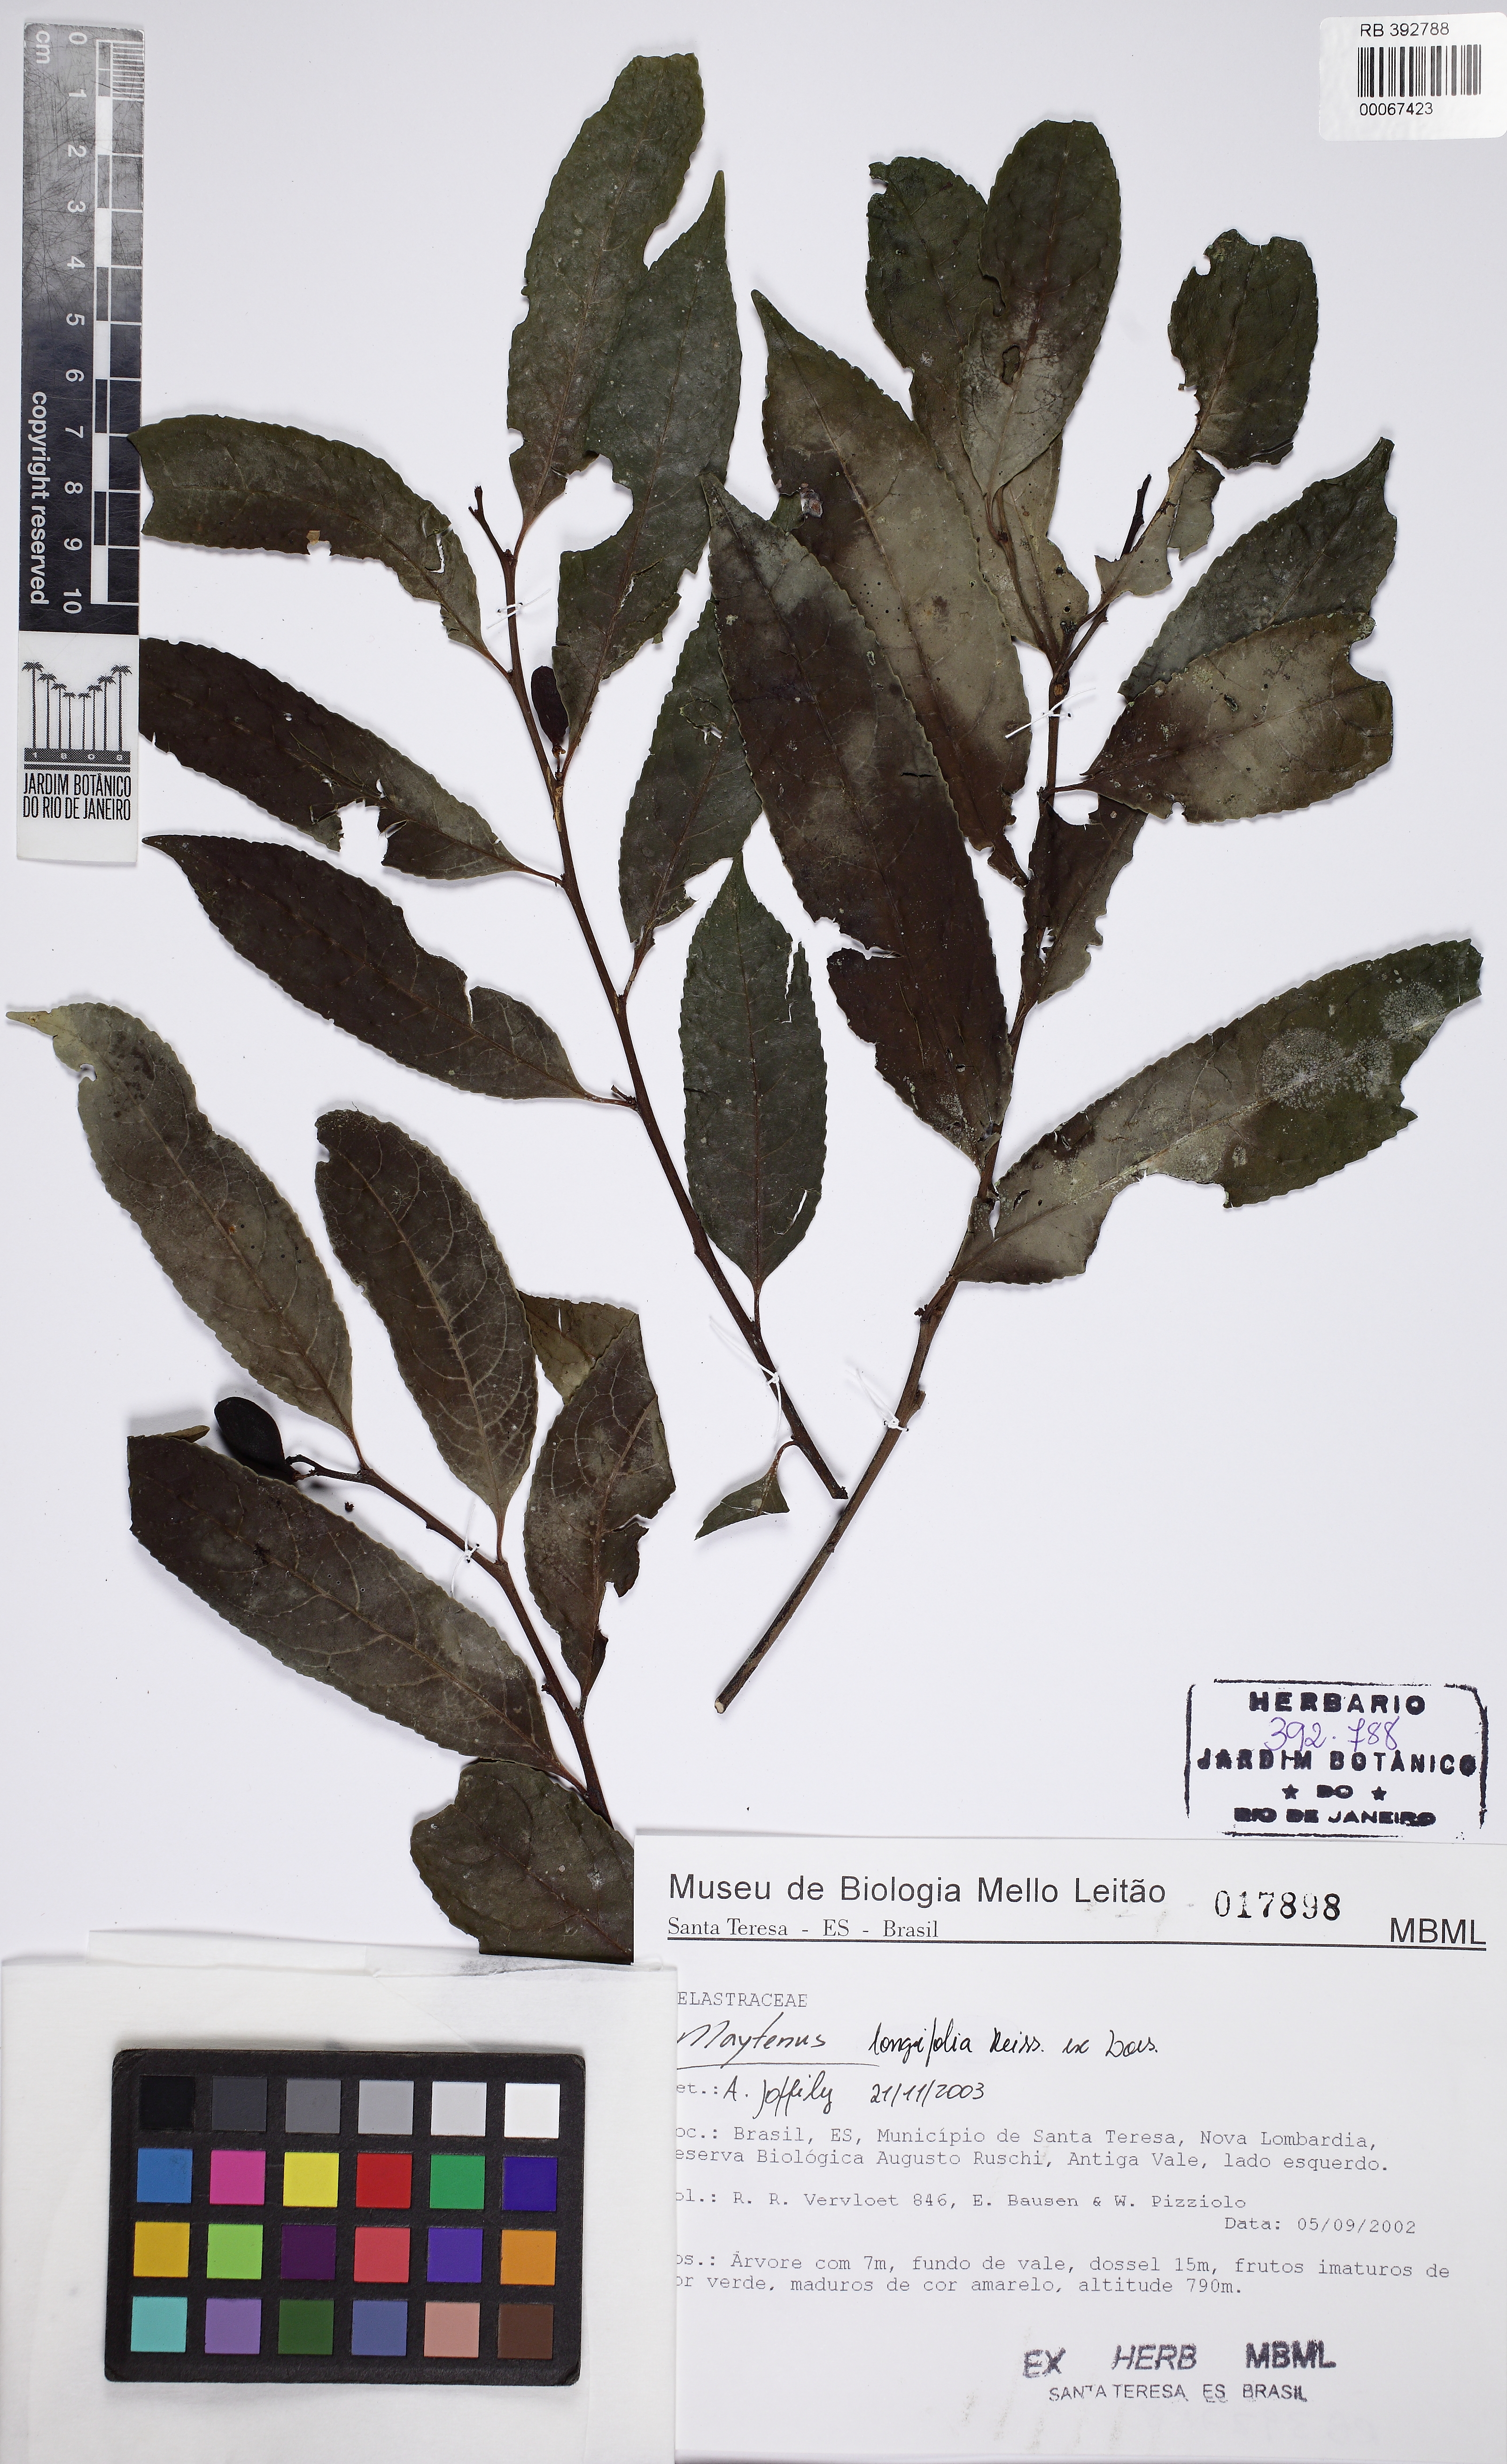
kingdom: Plantae
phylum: Tracheophyta
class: Magnoliopsida
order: Celastrales
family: Celastraceae
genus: Monteverdia
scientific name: Monteverdia longifolia
